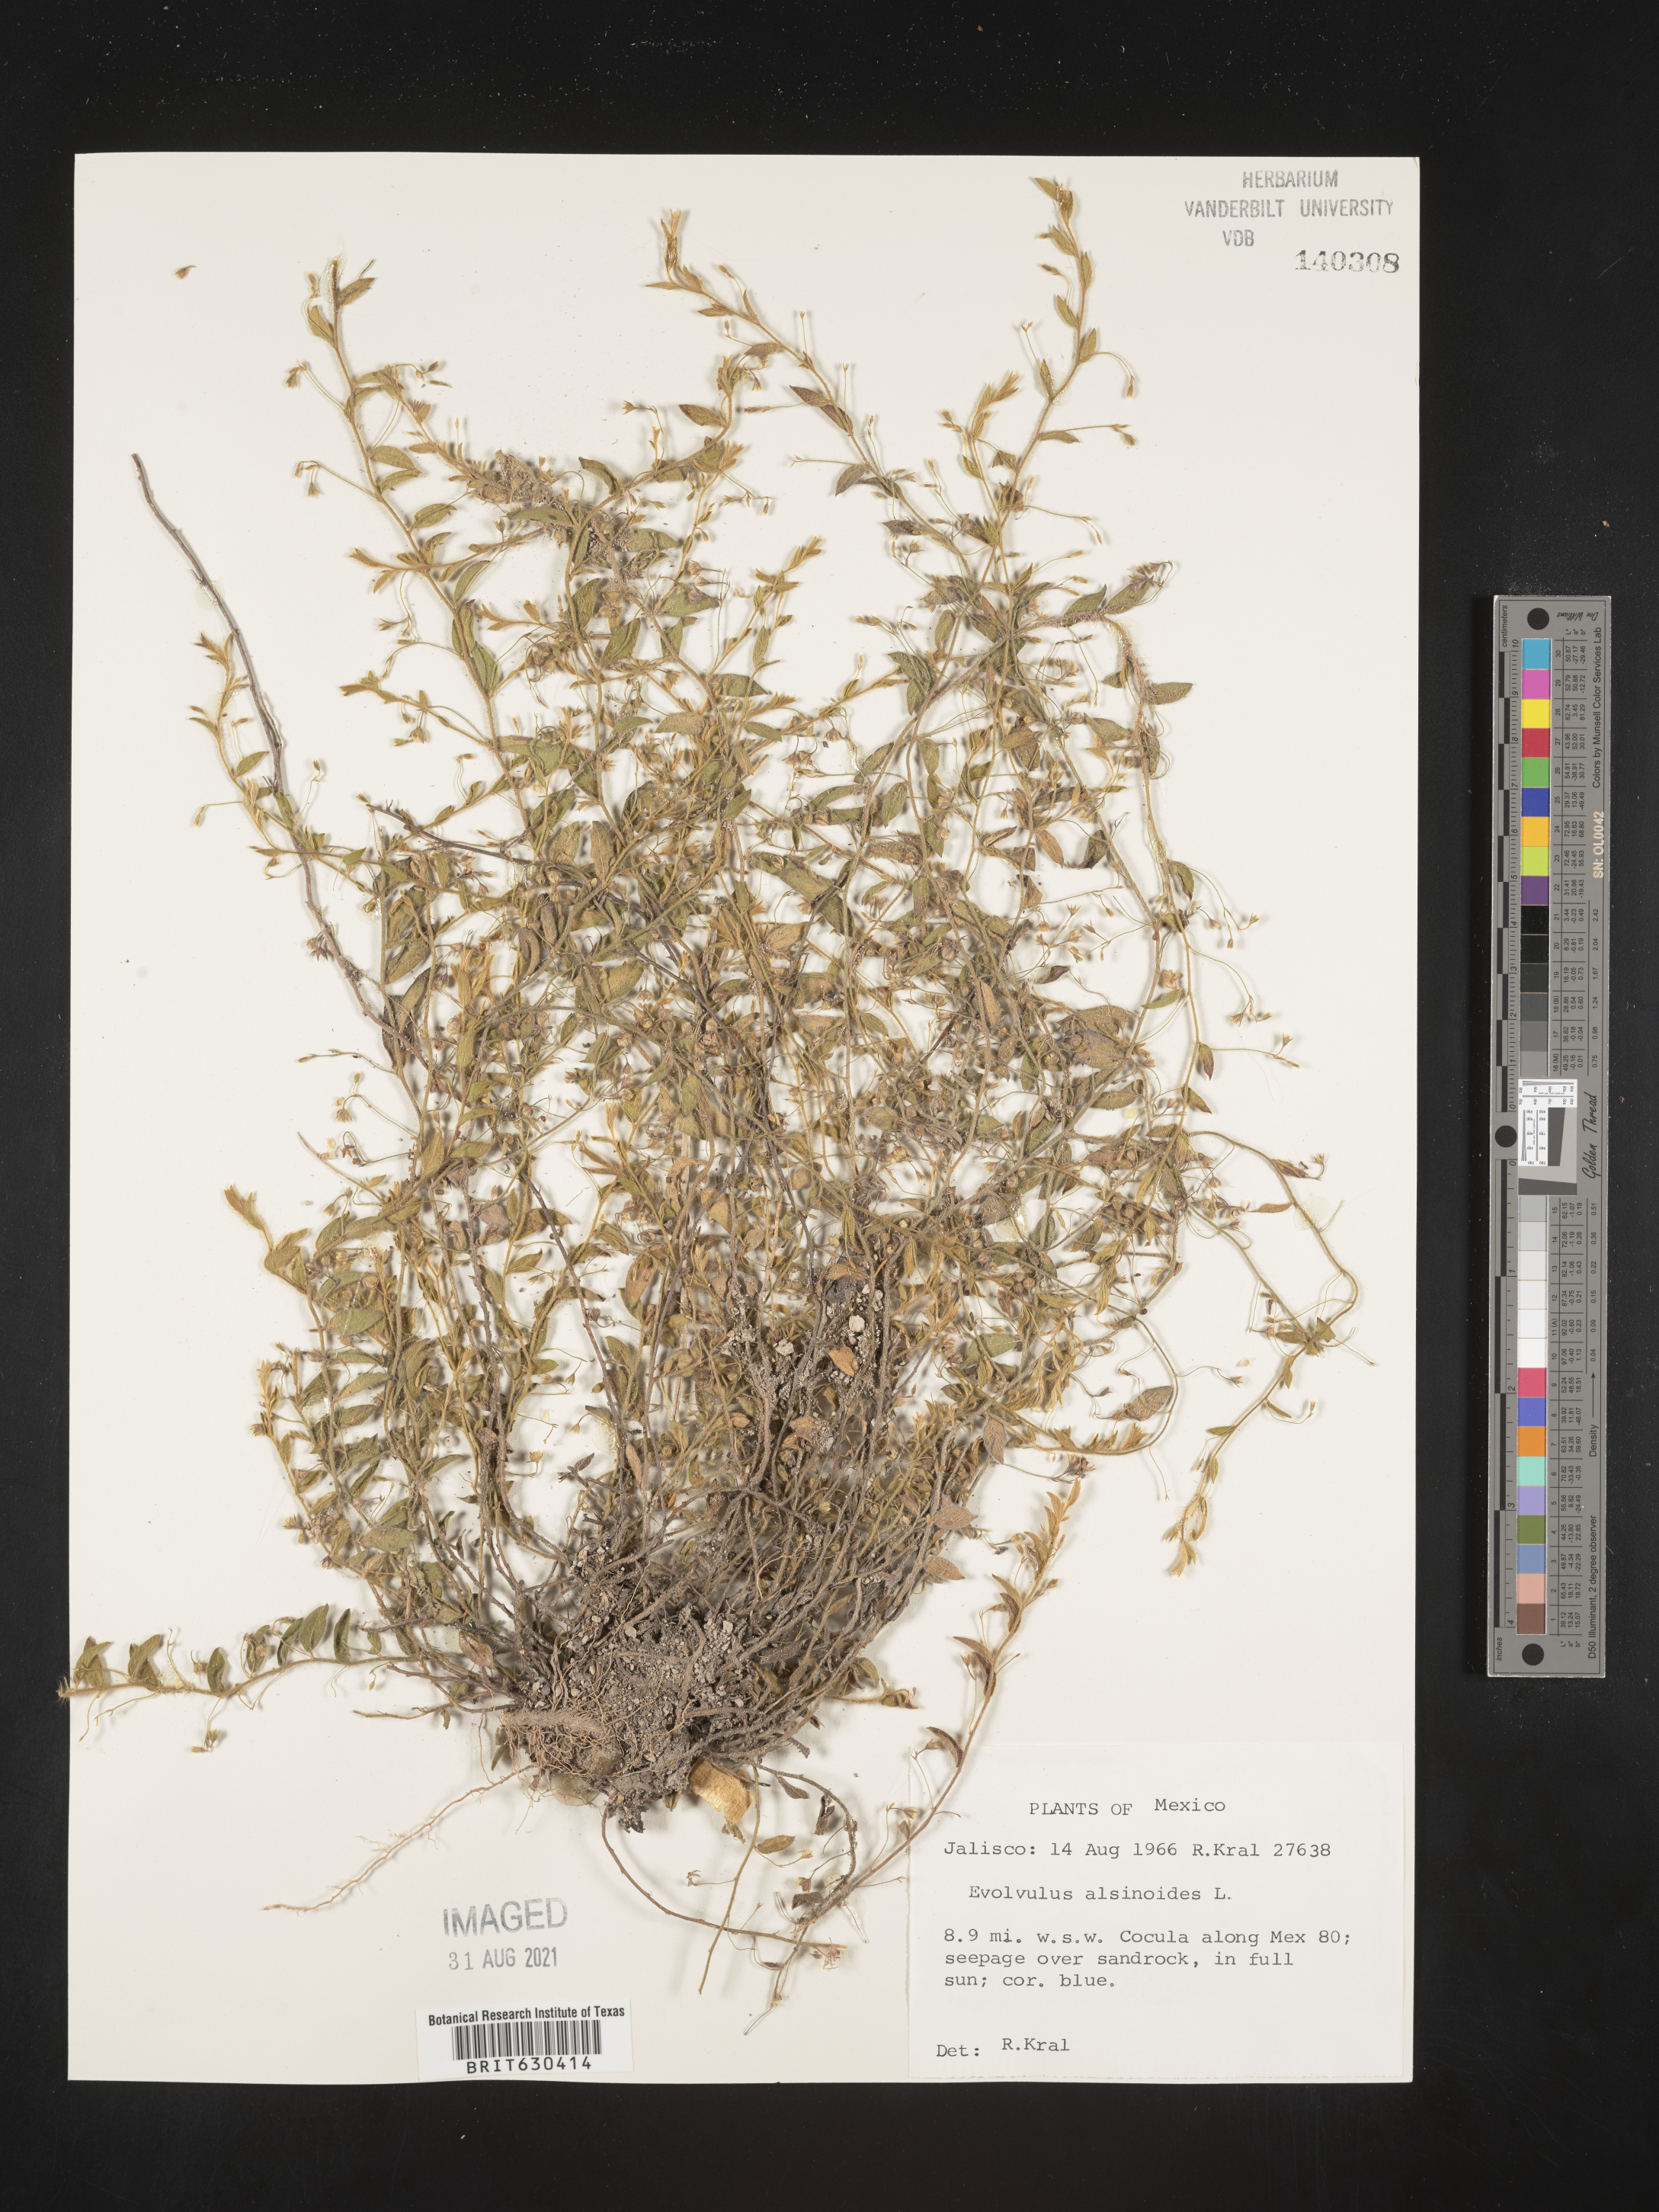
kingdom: Plantae
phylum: Tracheophyta
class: Magnoliopsida
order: Solanales
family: Convolvulaceae
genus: Evolvulus
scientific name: Evolvulus
